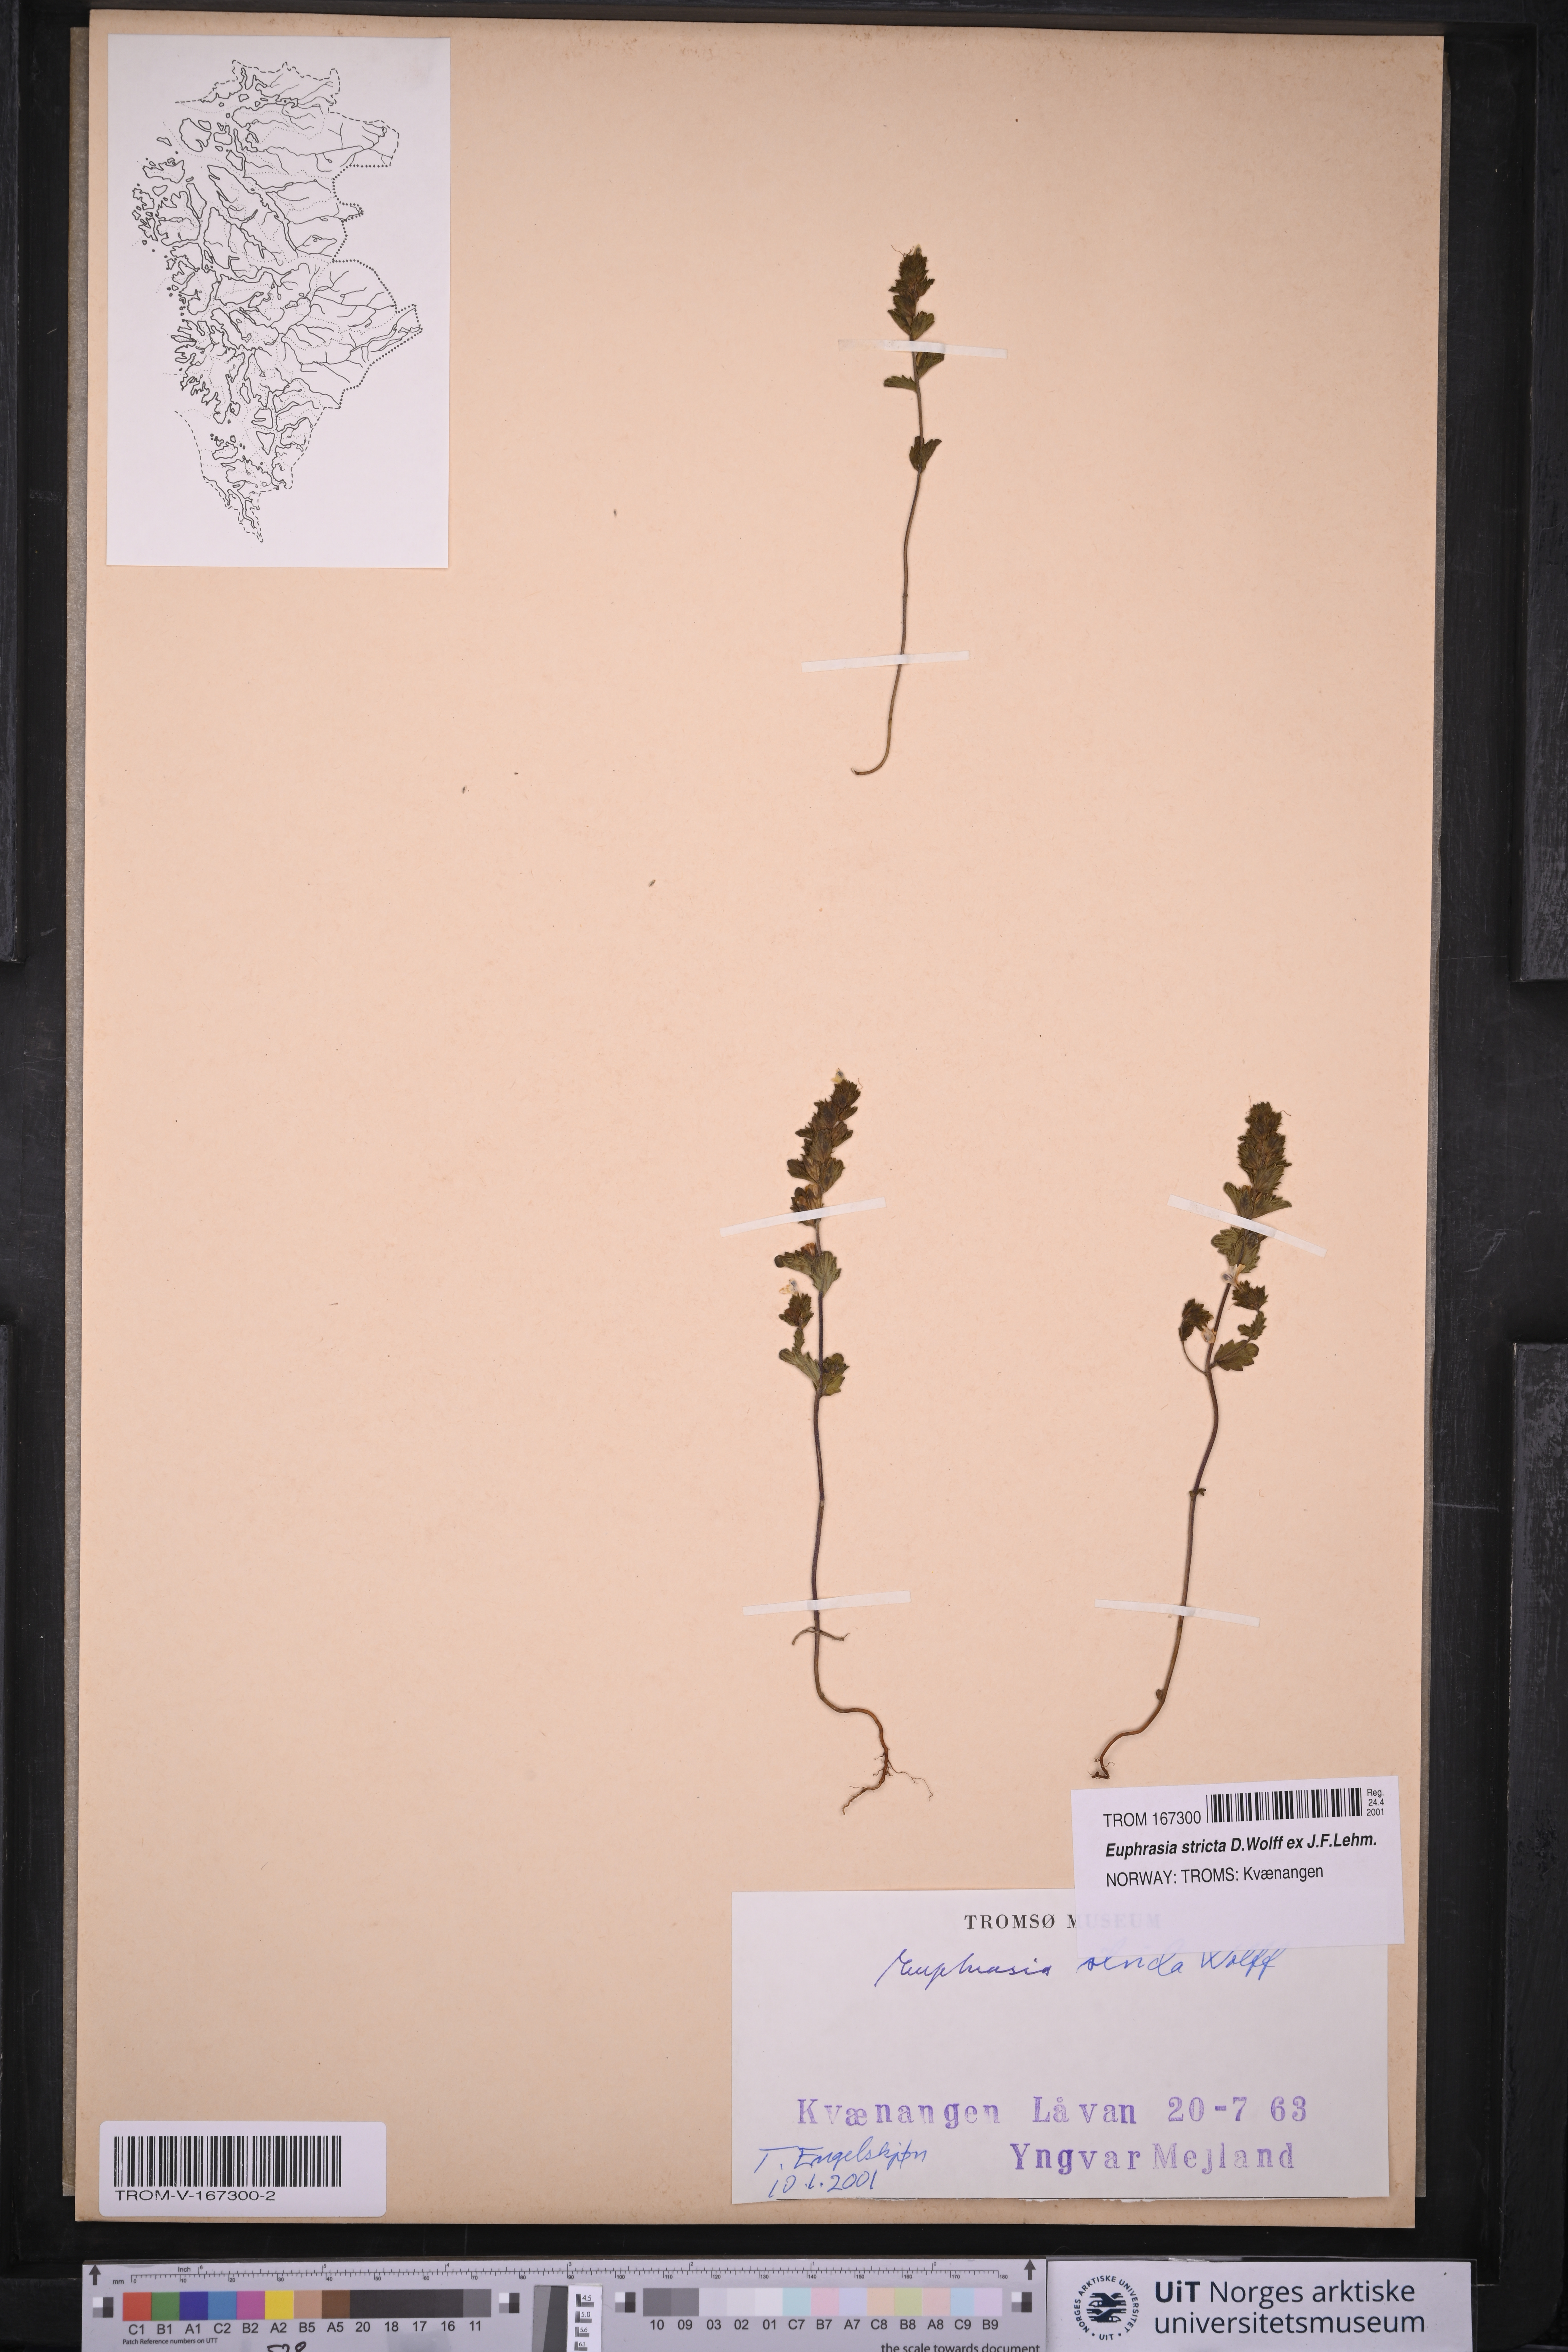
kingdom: Plantae
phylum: Tracheophyta
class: Magnoliopsida
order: Lamiales
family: Orobanchaceae
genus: Euphrasia
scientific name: Euphrasia stricta
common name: Drug eyebright
